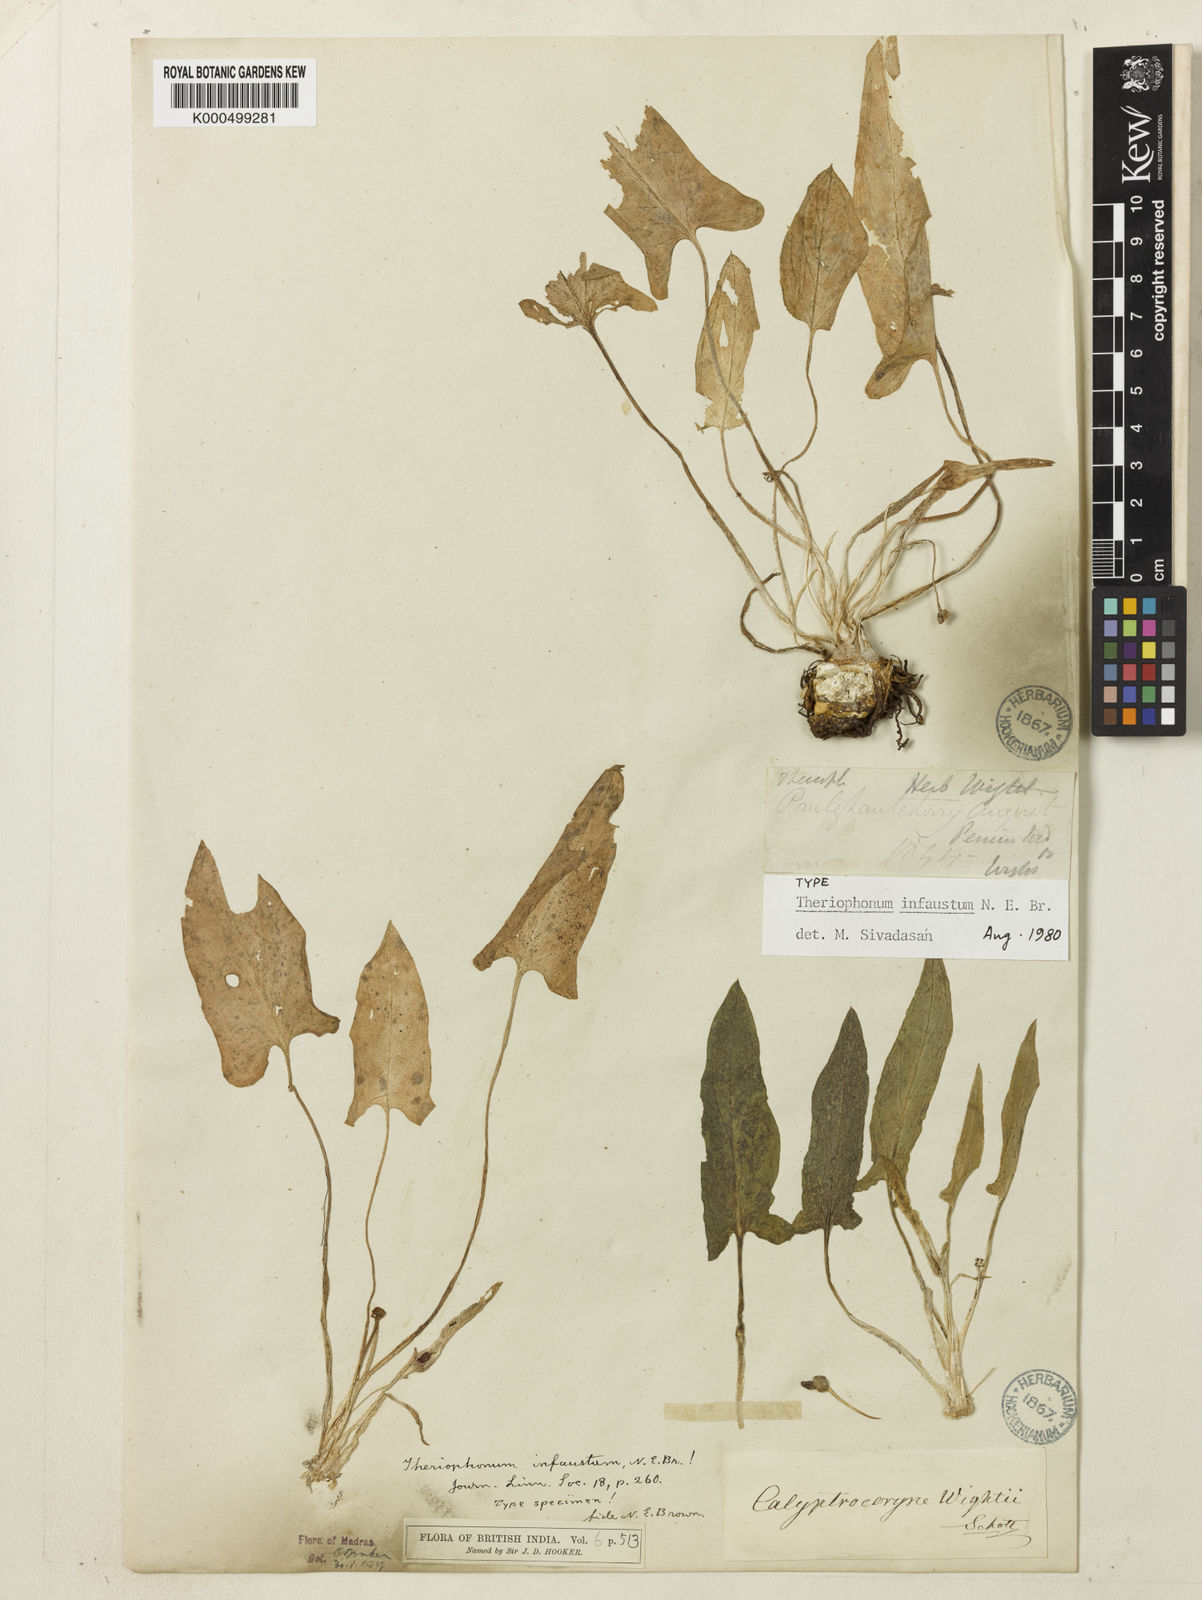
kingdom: Plantae
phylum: Tracheophyta
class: Liliopsida
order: Alismatales
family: Araceae
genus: Theriophonum
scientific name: Theriophonum infaustum
